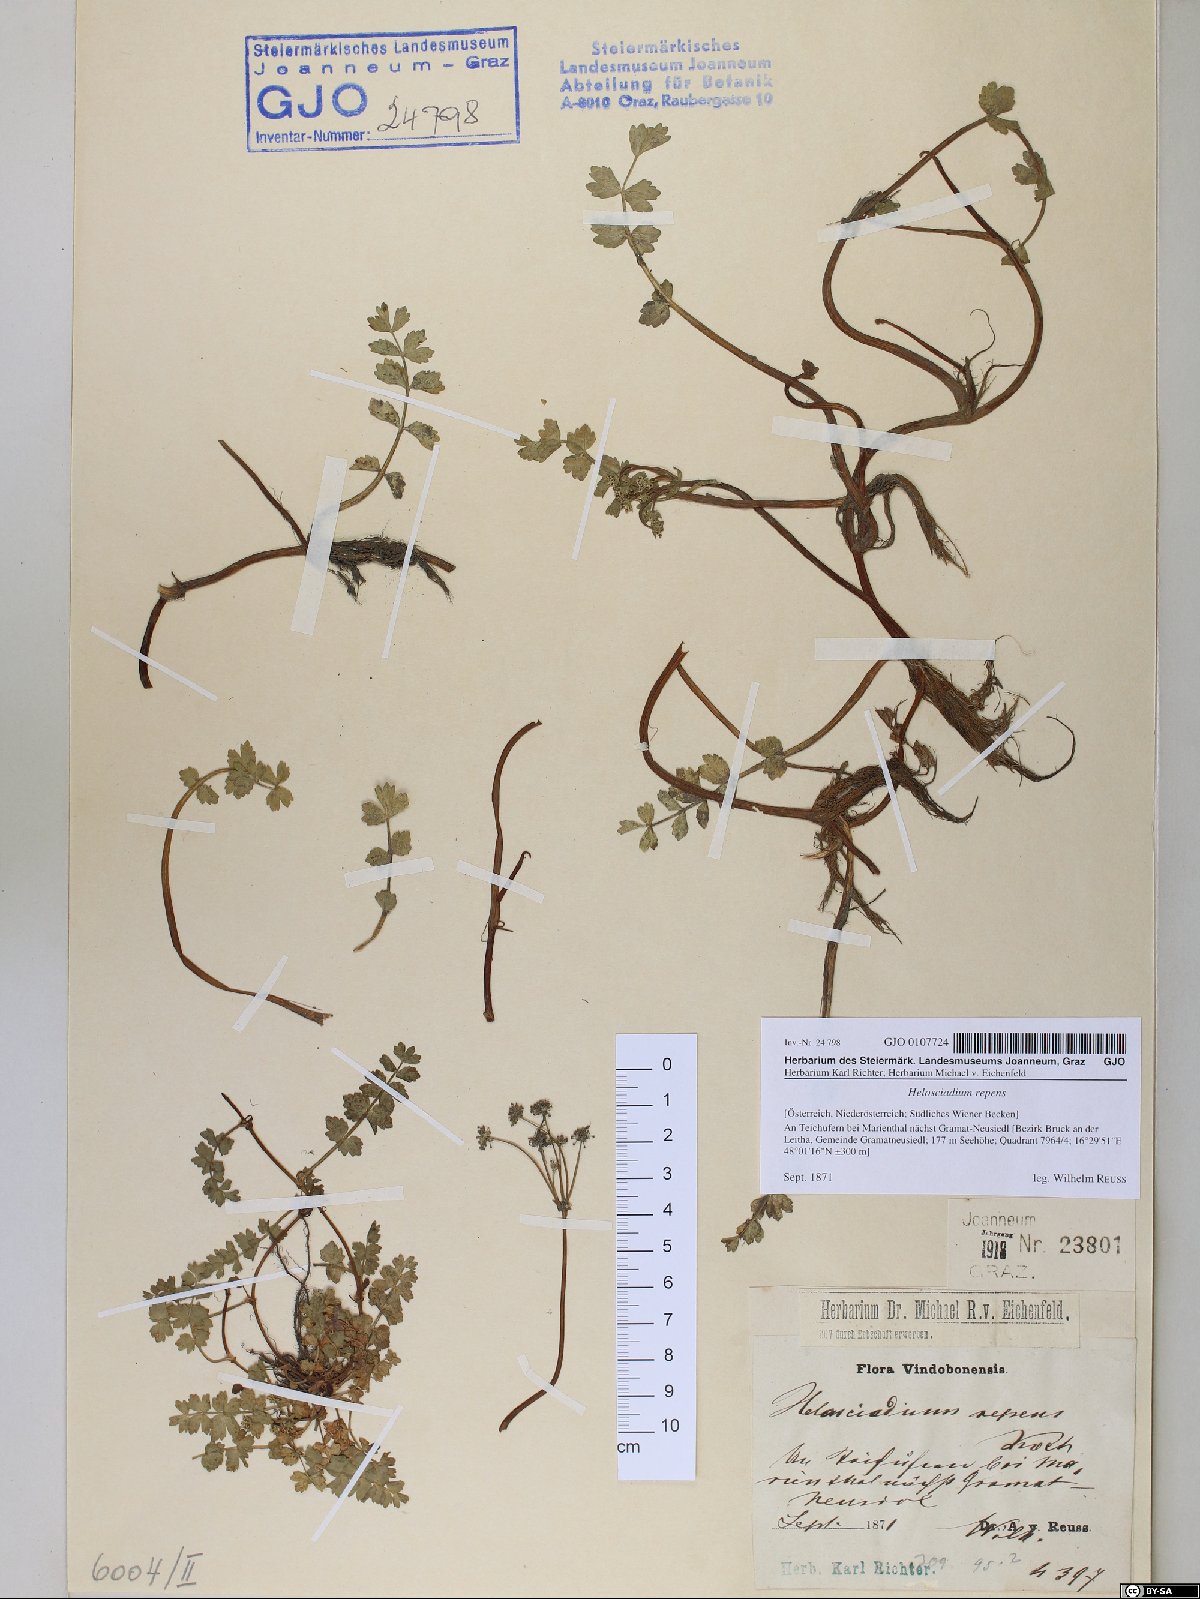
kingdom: Plantae
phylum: Tracheophyta
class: Magnoliopsida
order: Apiales
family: Apiaceae
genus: Helosciadium
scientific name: Helosciadium repens
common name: Creeping marshwort
